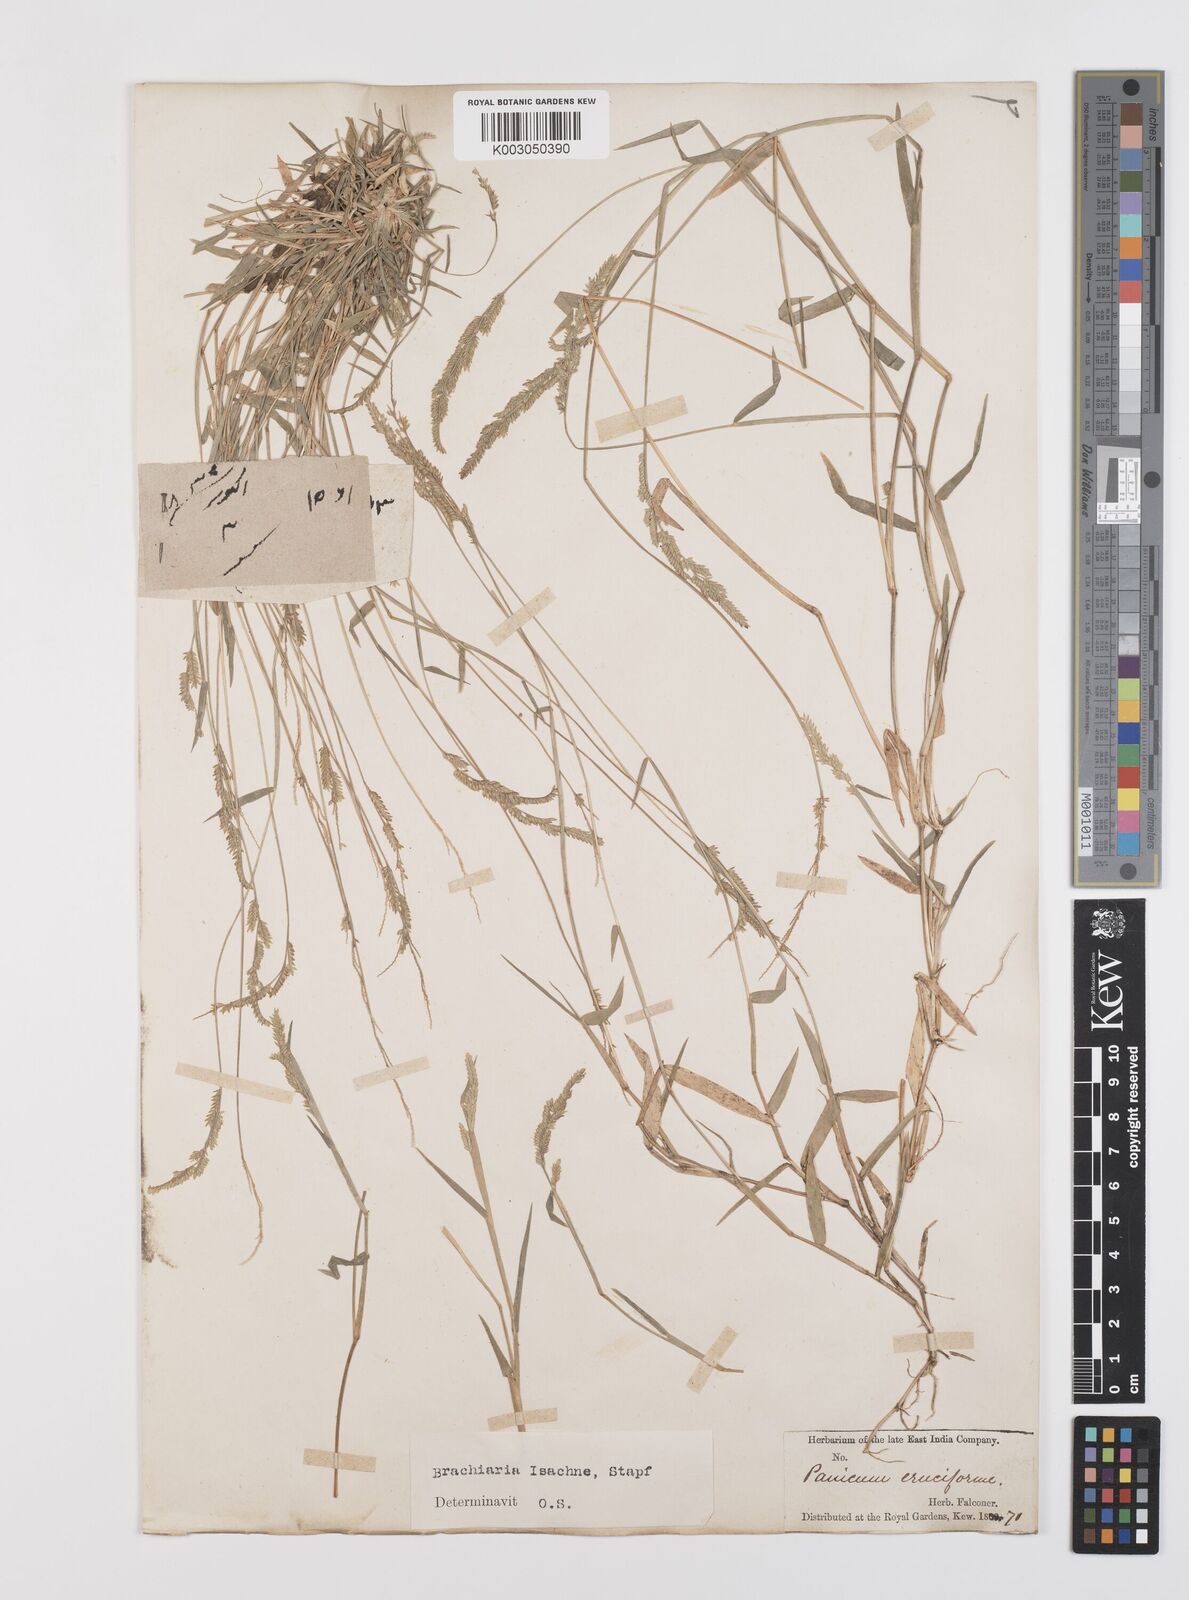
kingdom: Plantae
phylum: Tracheophyta
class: Liliopsida
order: Poales
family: Poaceae
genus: Moorochloa
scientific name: Moorochloa eruciformis
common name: Sweet signalgrass
